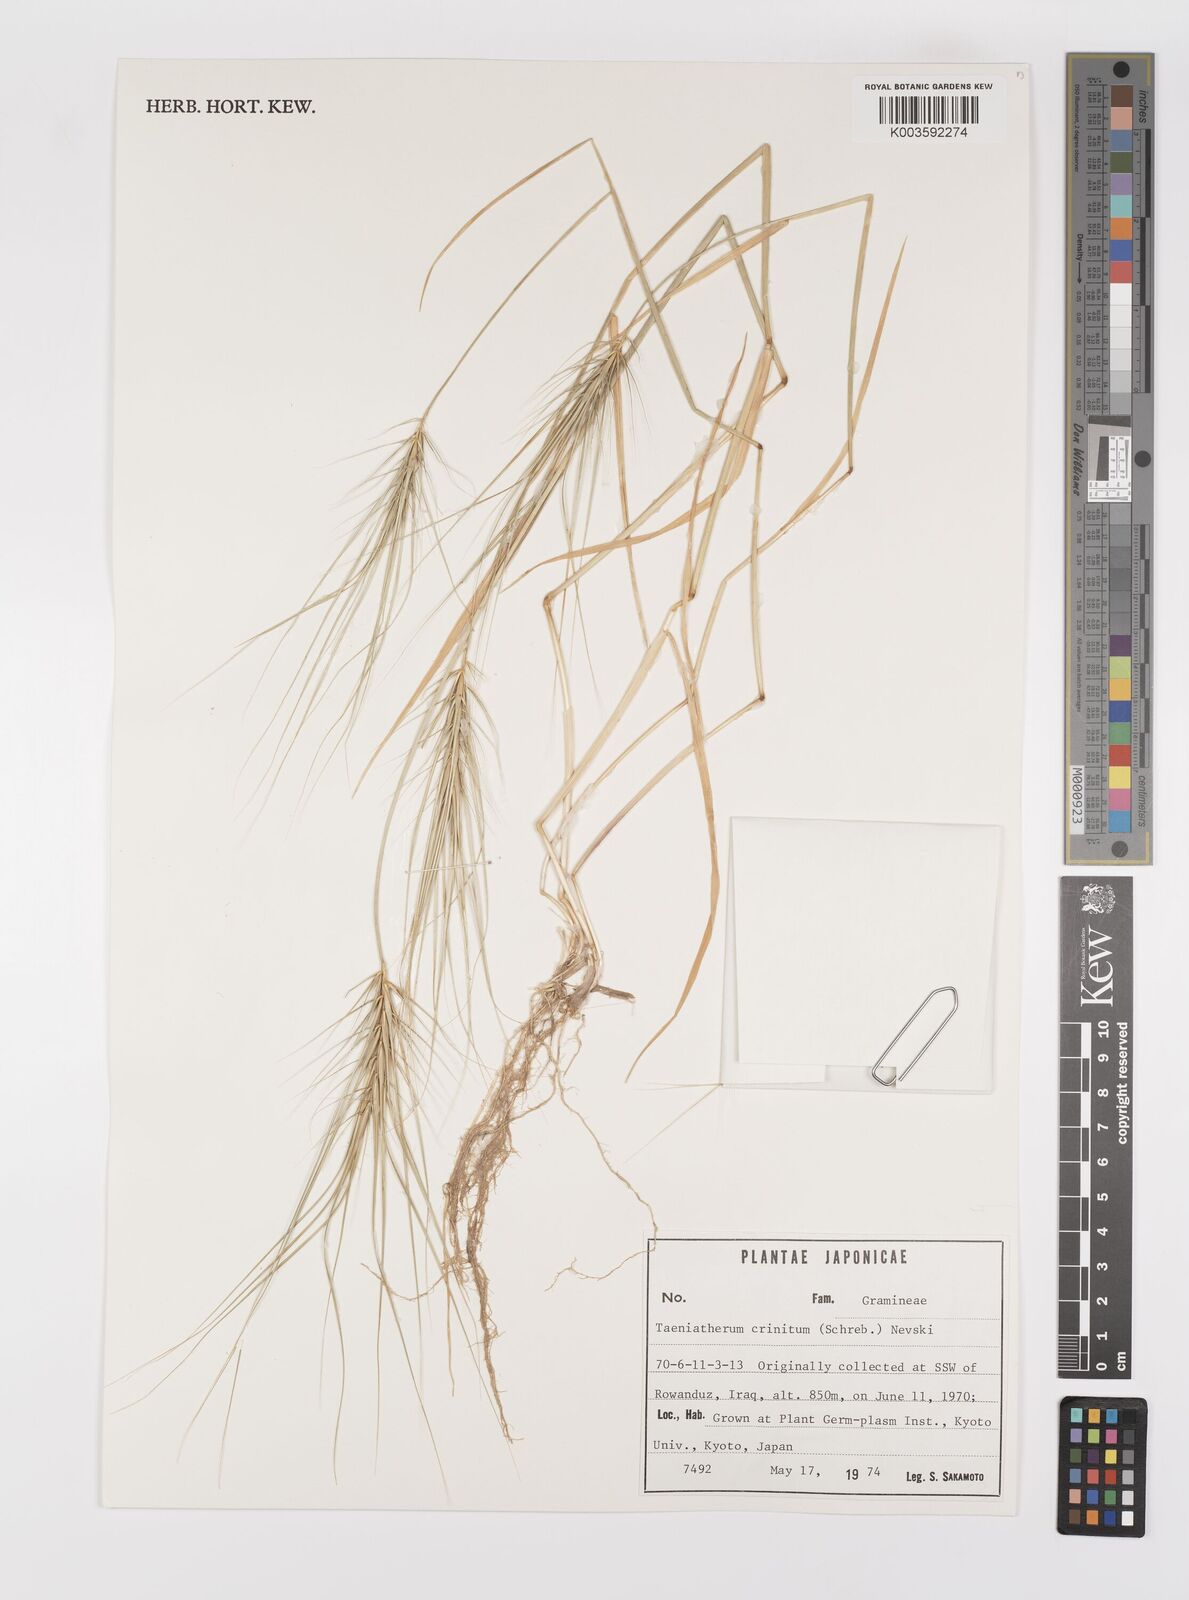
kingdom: Plantae
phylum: Tracheophyta
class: Liliopsida
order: Poales
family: Poaceae
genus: Taeniatherum
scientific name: Taeniatherum caput-medusae
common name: Medusahead
